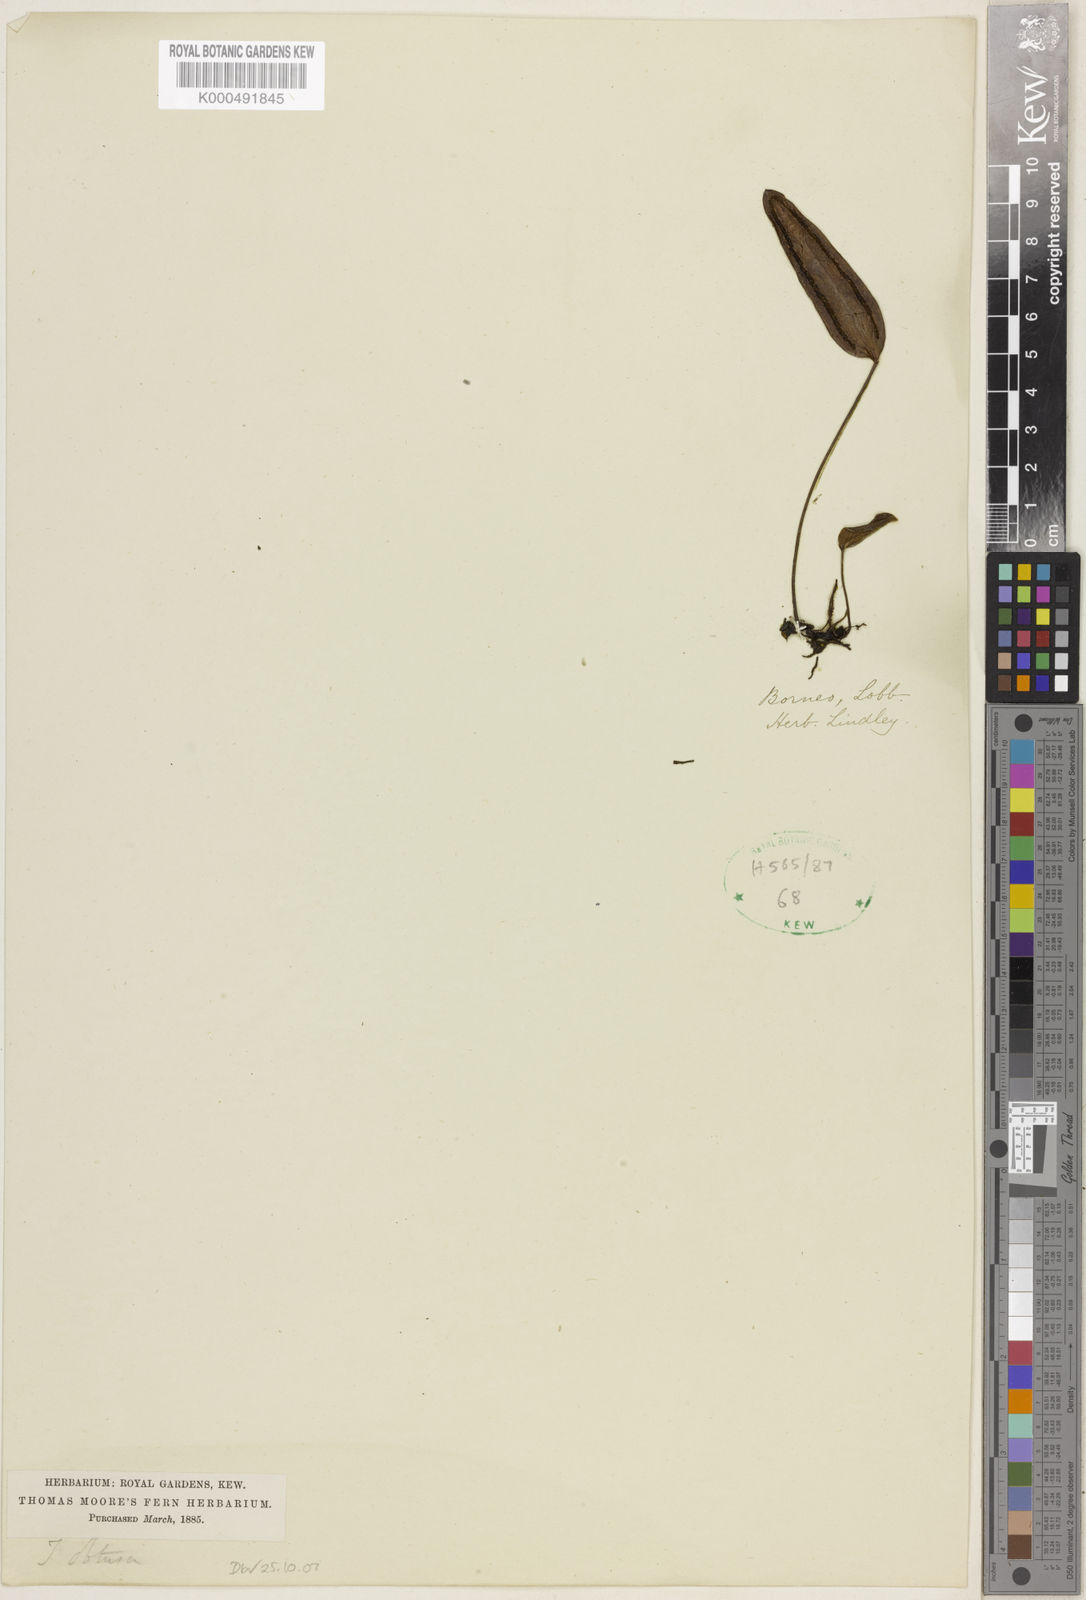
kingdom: Plantae
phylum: Tracheophyta
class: Polypodiopsida
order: Polypodiales
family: Pteridaceae
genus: Taenitis
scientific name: Taenitis obtusa
